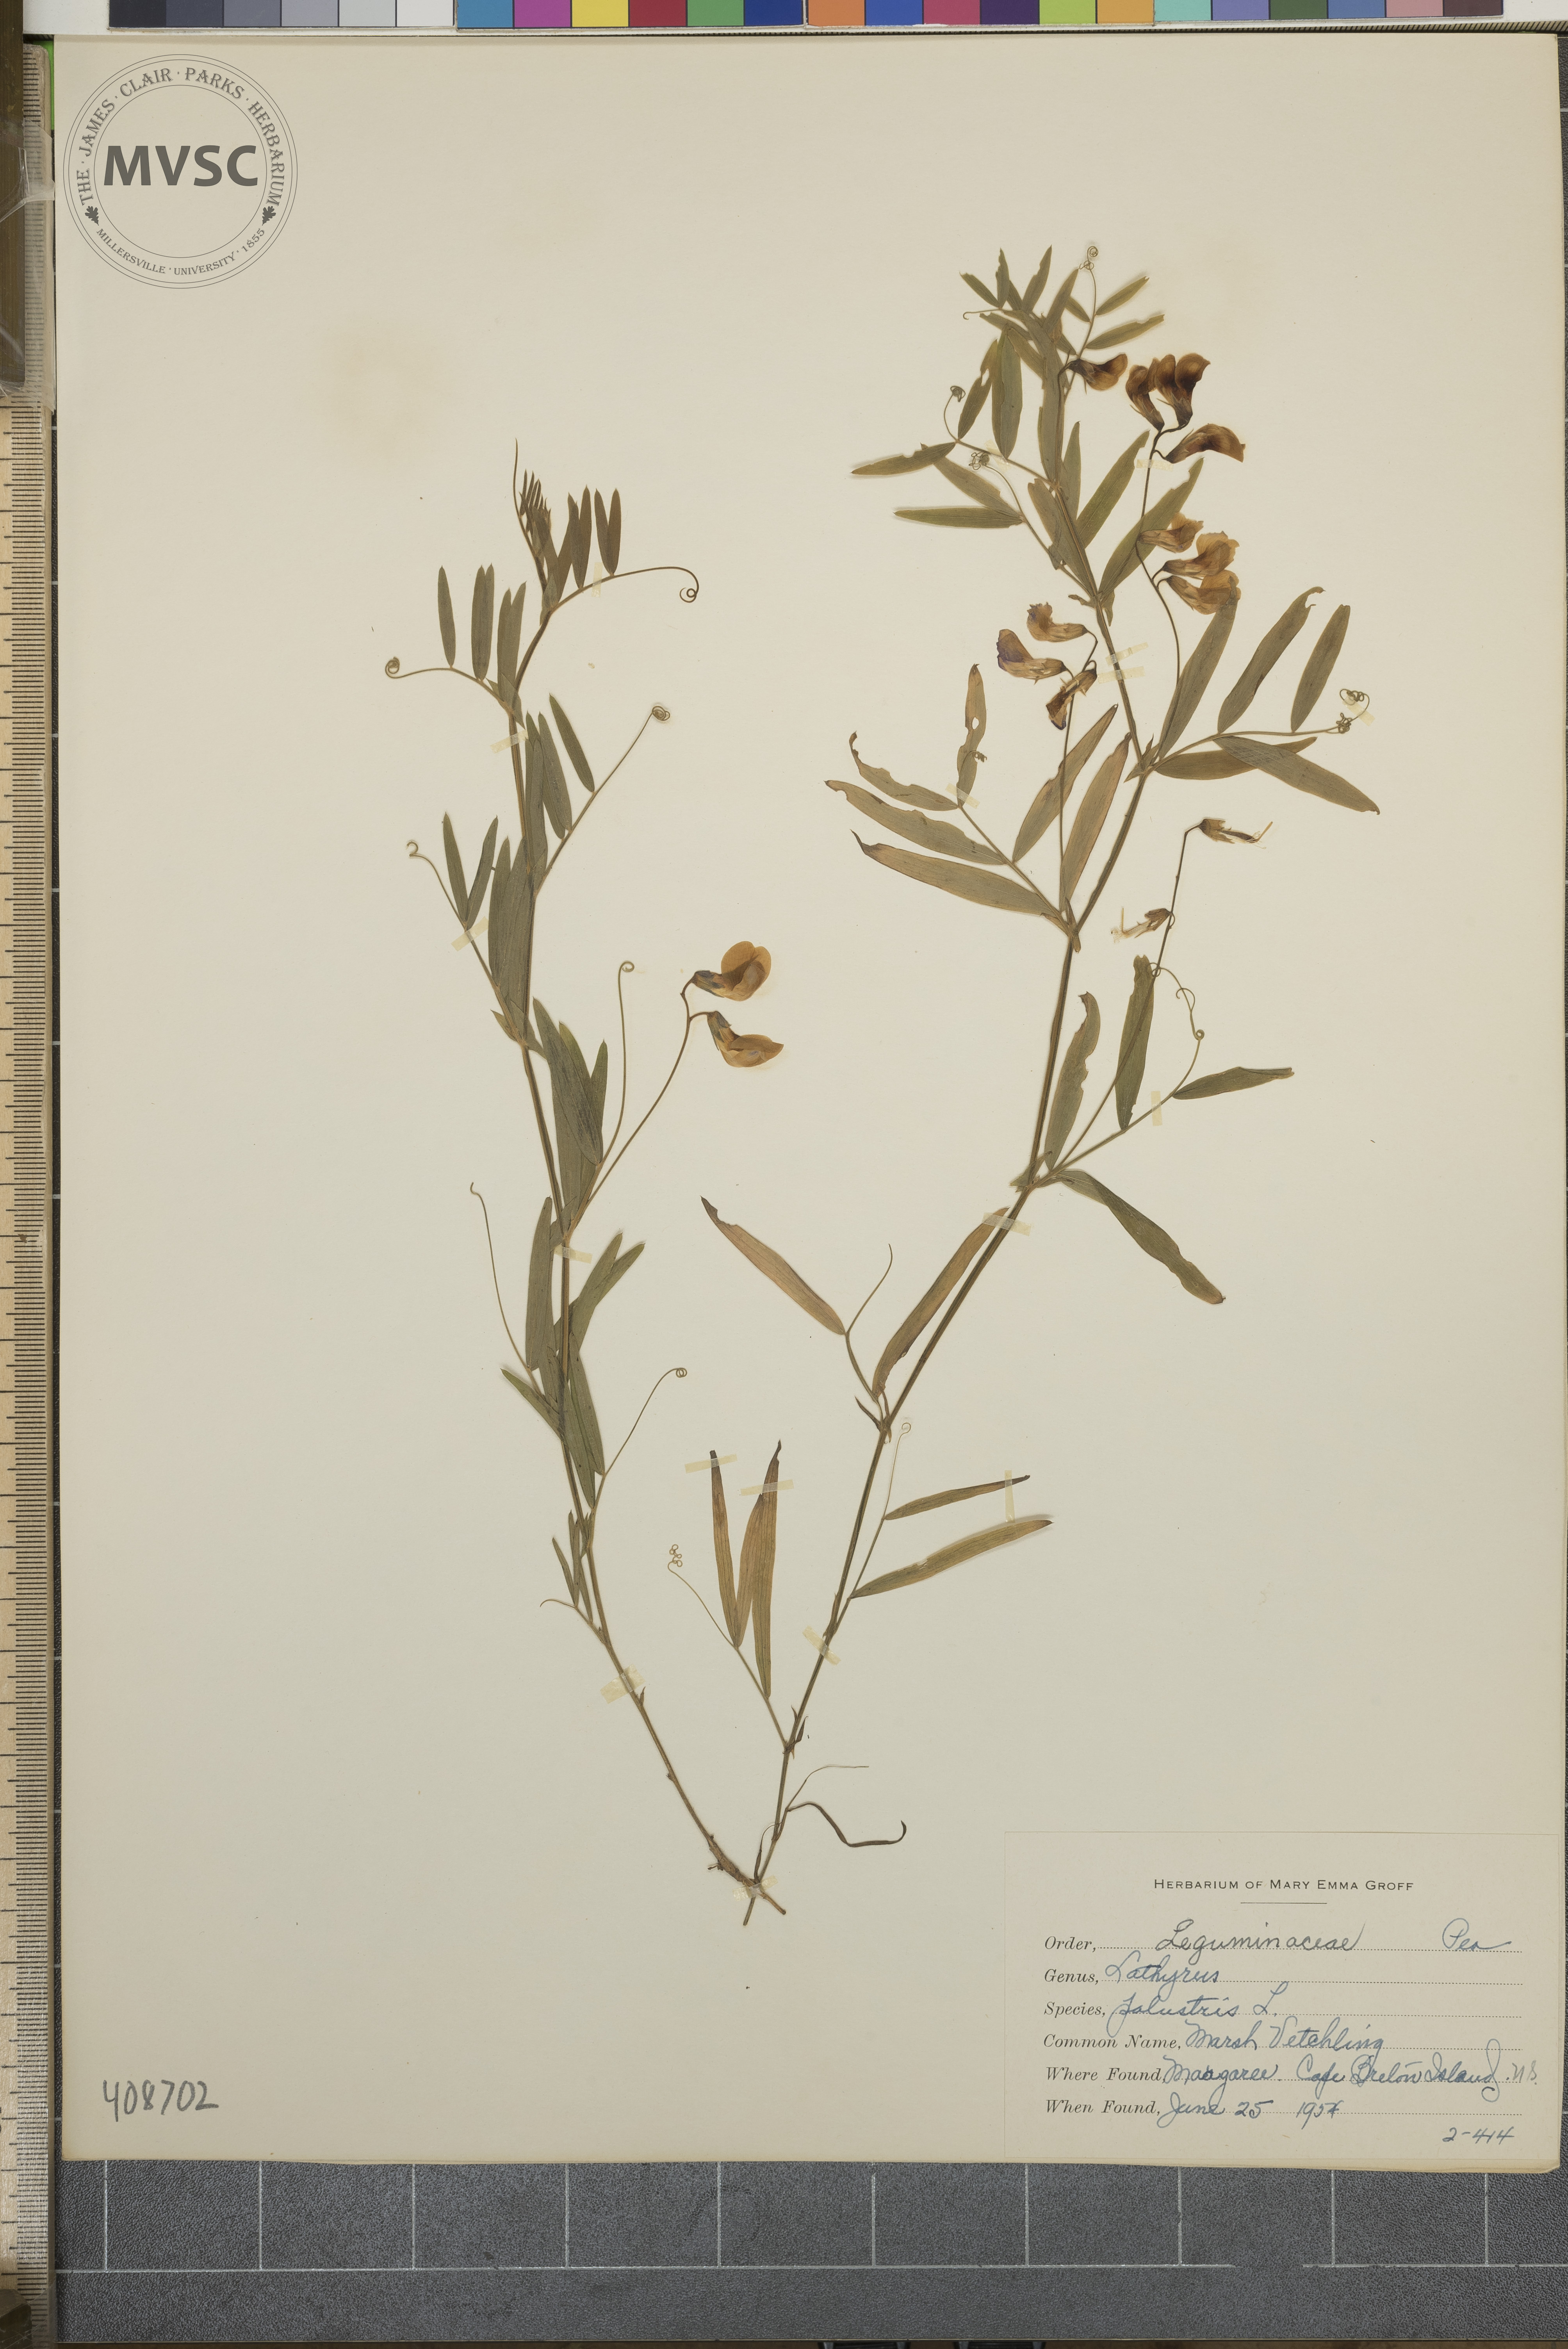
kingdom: Plantae
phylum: Tracheophyta
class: Magnoliopsida
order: Fabales
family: Fabaceae
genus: Lathyrus
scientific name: Lathyrus palustris
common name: Marsh Vetchling
